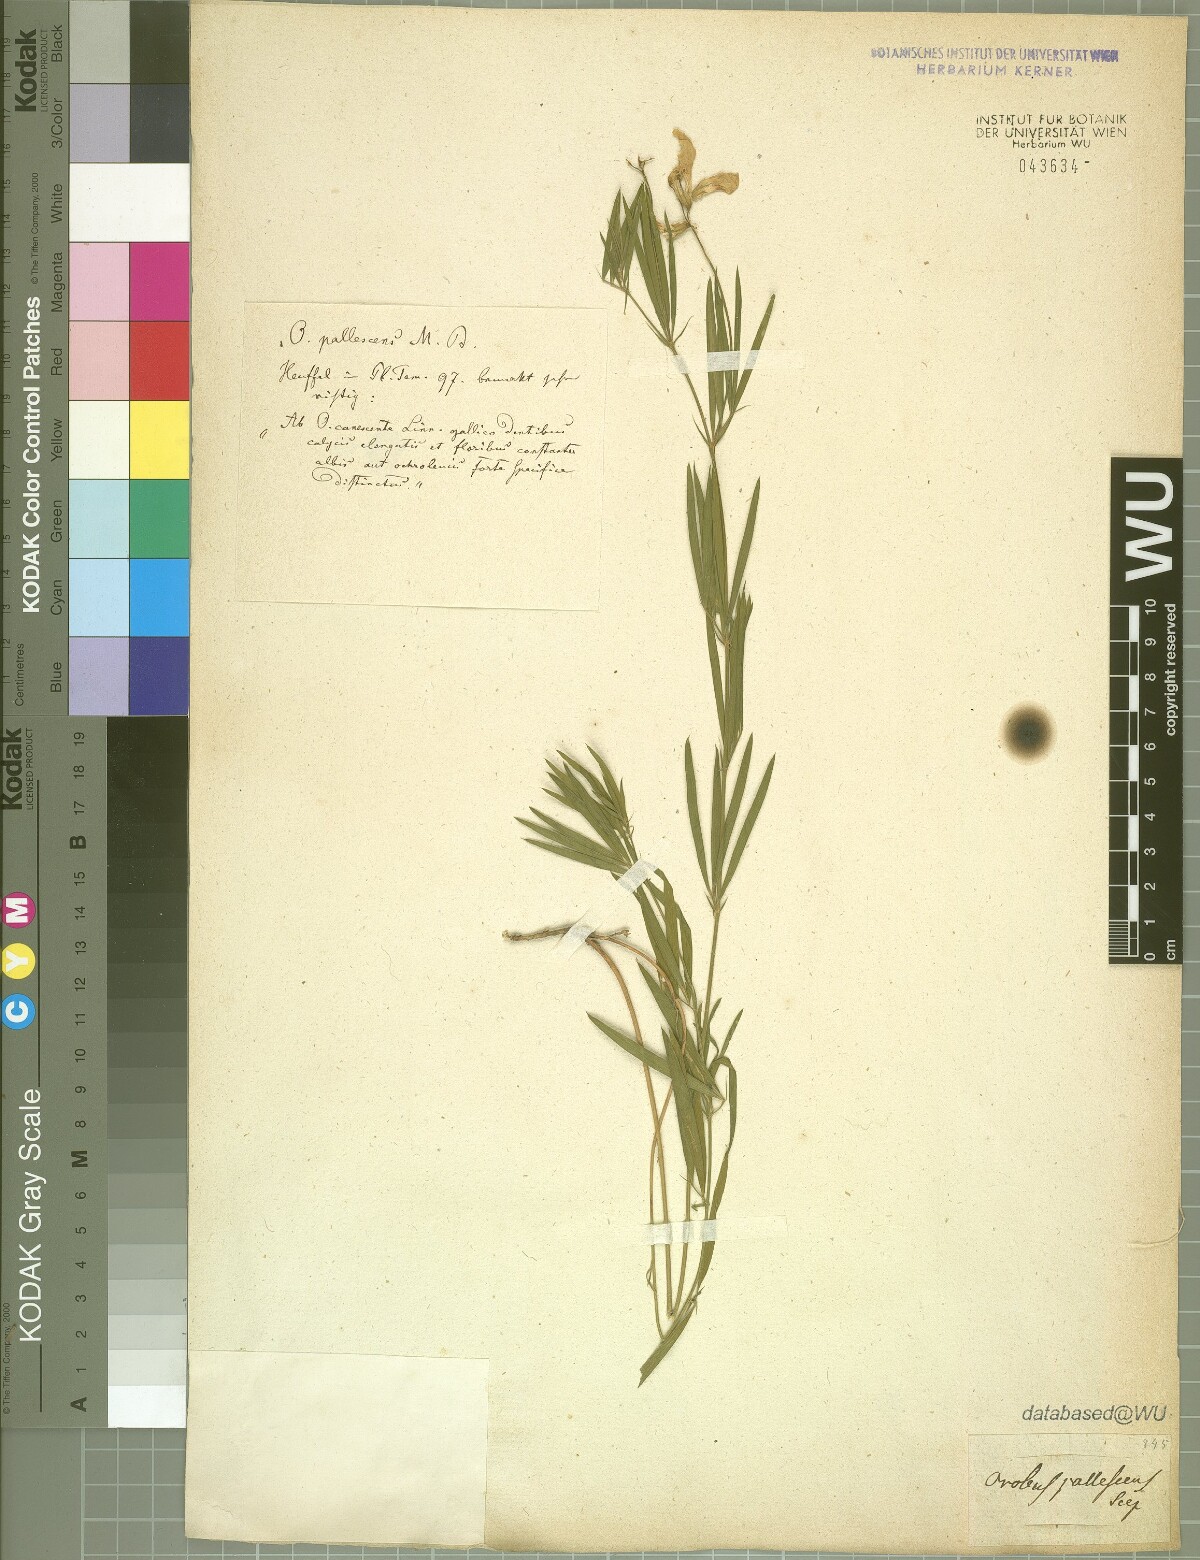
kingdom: Plantae
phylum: Tracheophyta
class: Magnoliopsida
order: Fabales
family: Fabaceae
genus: Lathyrus
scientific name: Lathyrus pallescens
